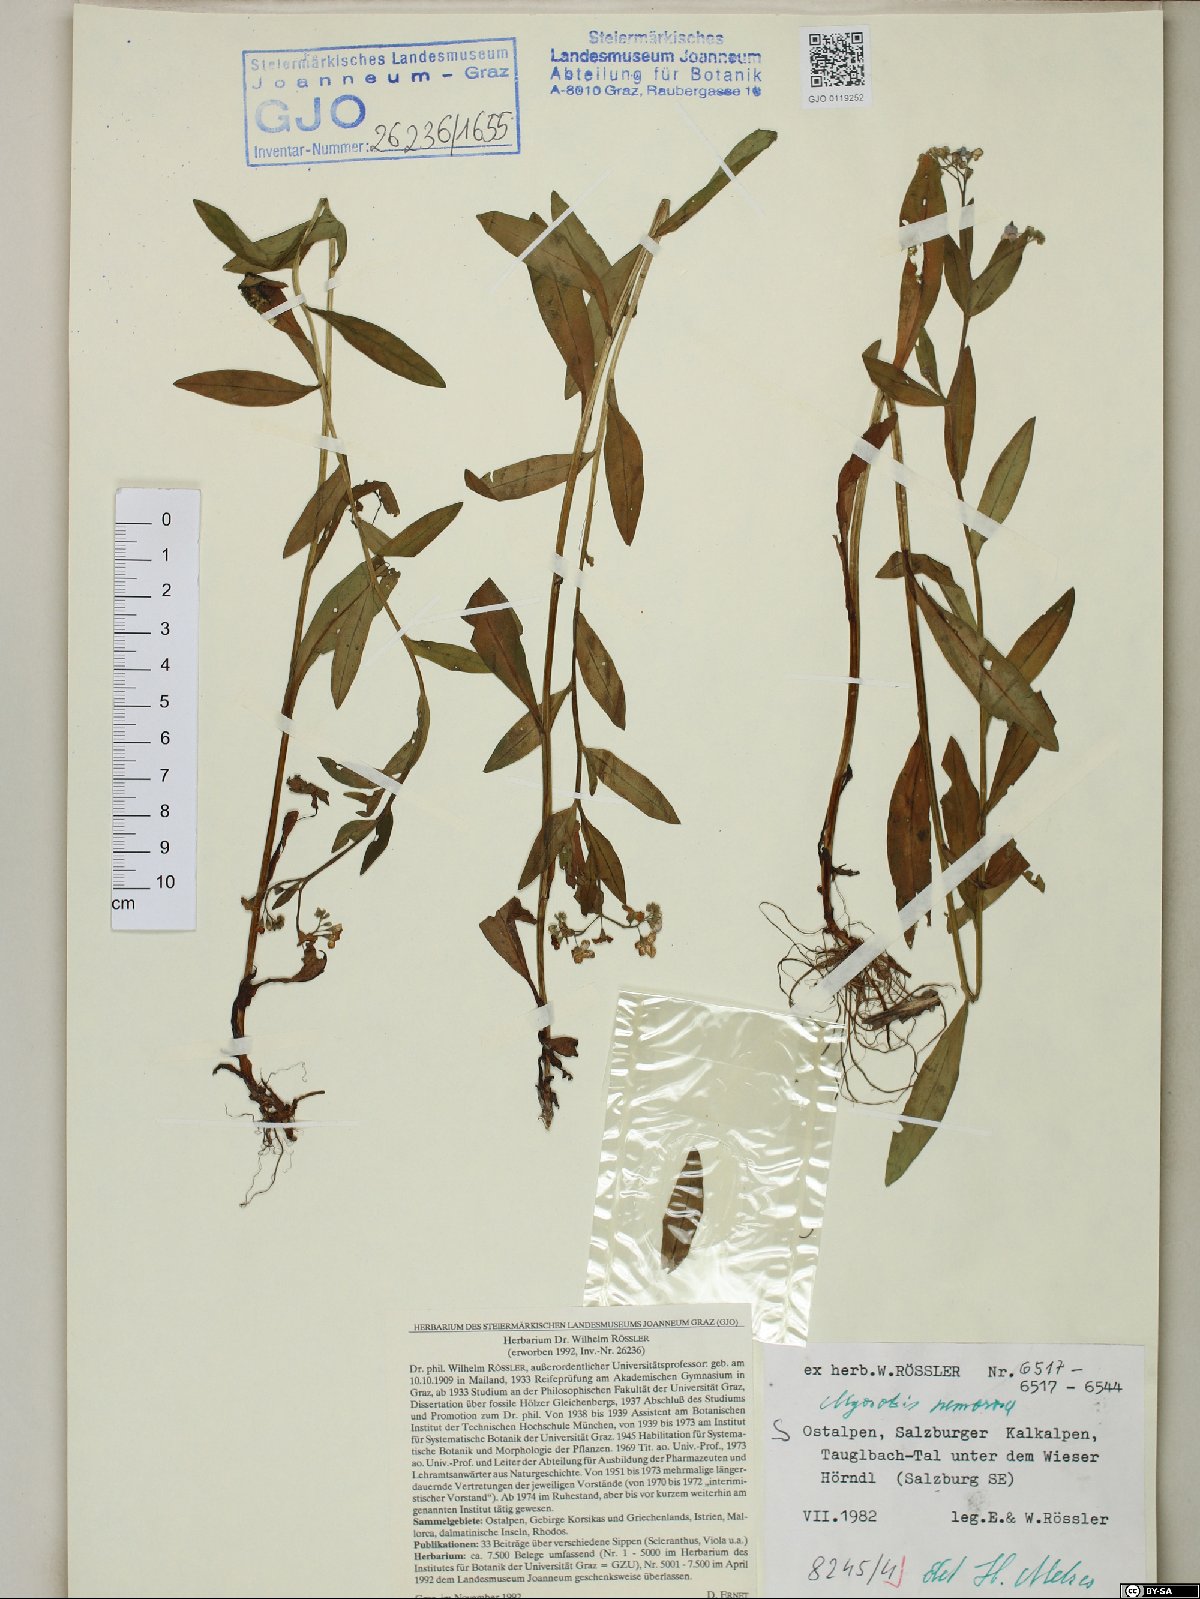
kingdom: Plantae
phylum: Tracheophyta
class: Magnoliopsida
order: Boraginales
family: Boraginaceae
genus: Myosotis
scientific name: Myosotis nemorosa
